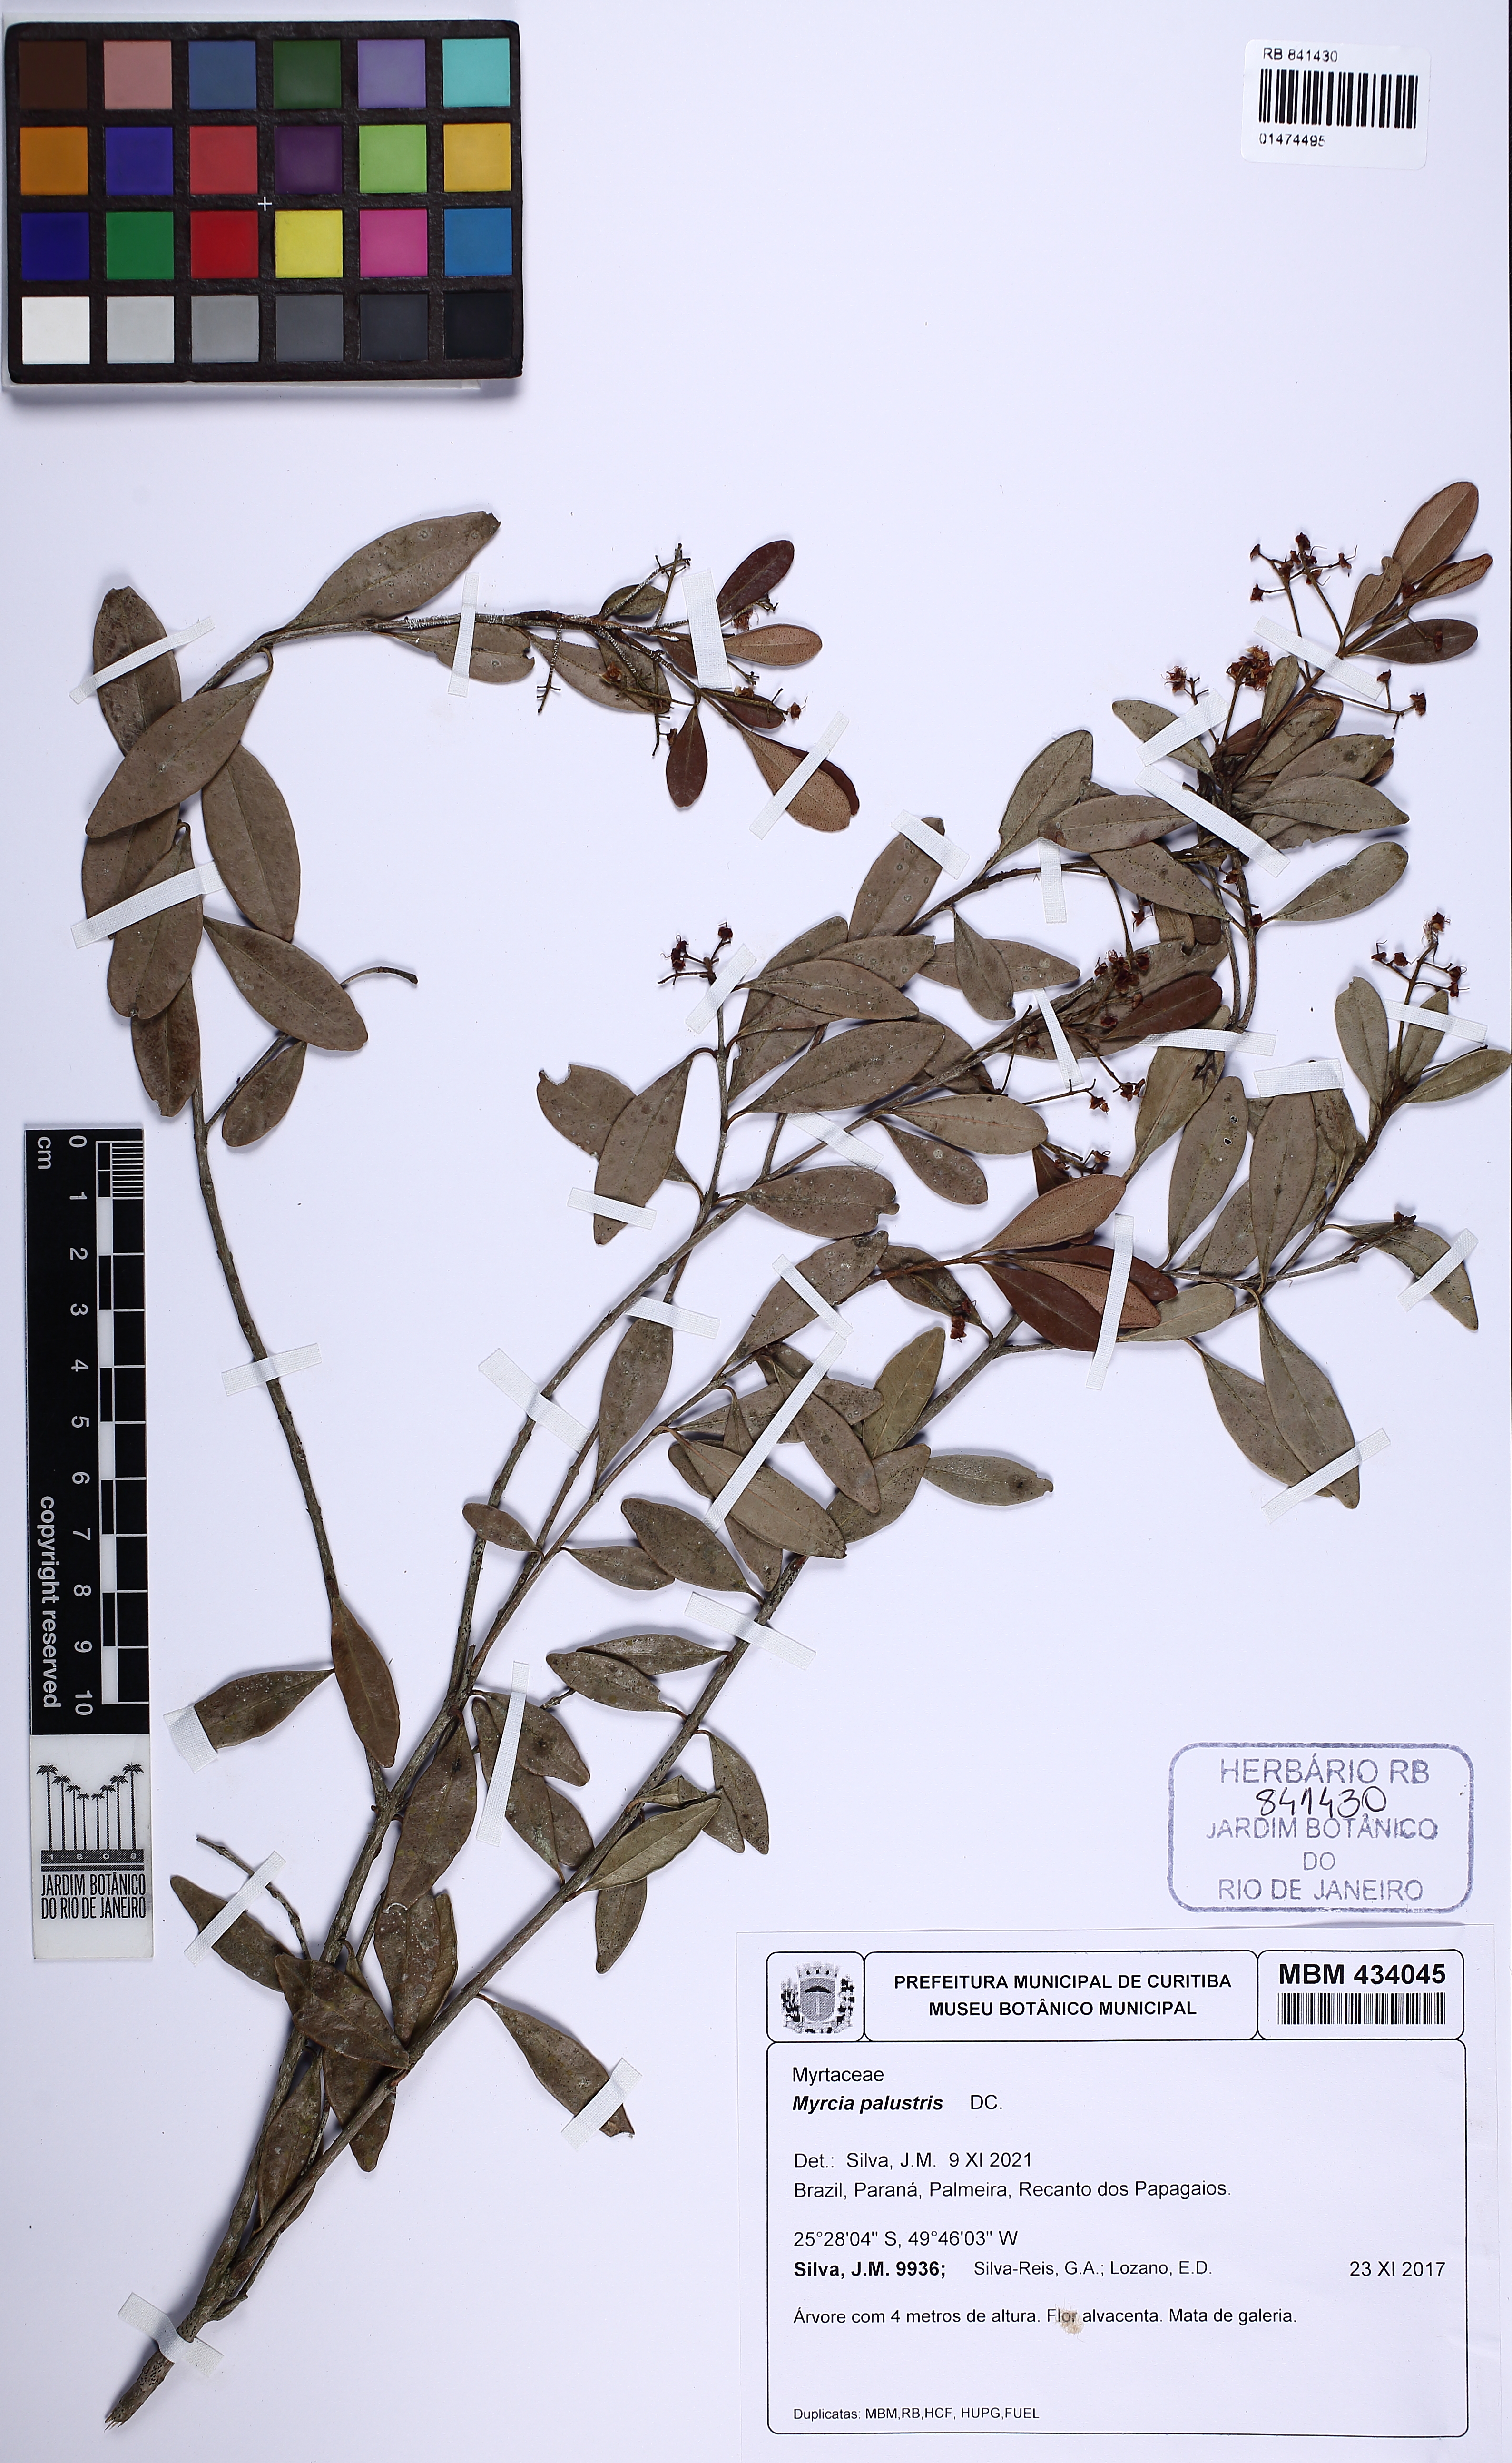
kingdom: Plantae
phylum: Tracheophyta
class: Magnoliopsida
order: Myrtales
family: Myrtaceae
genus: Myrcia
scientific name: Myrcia palustris
